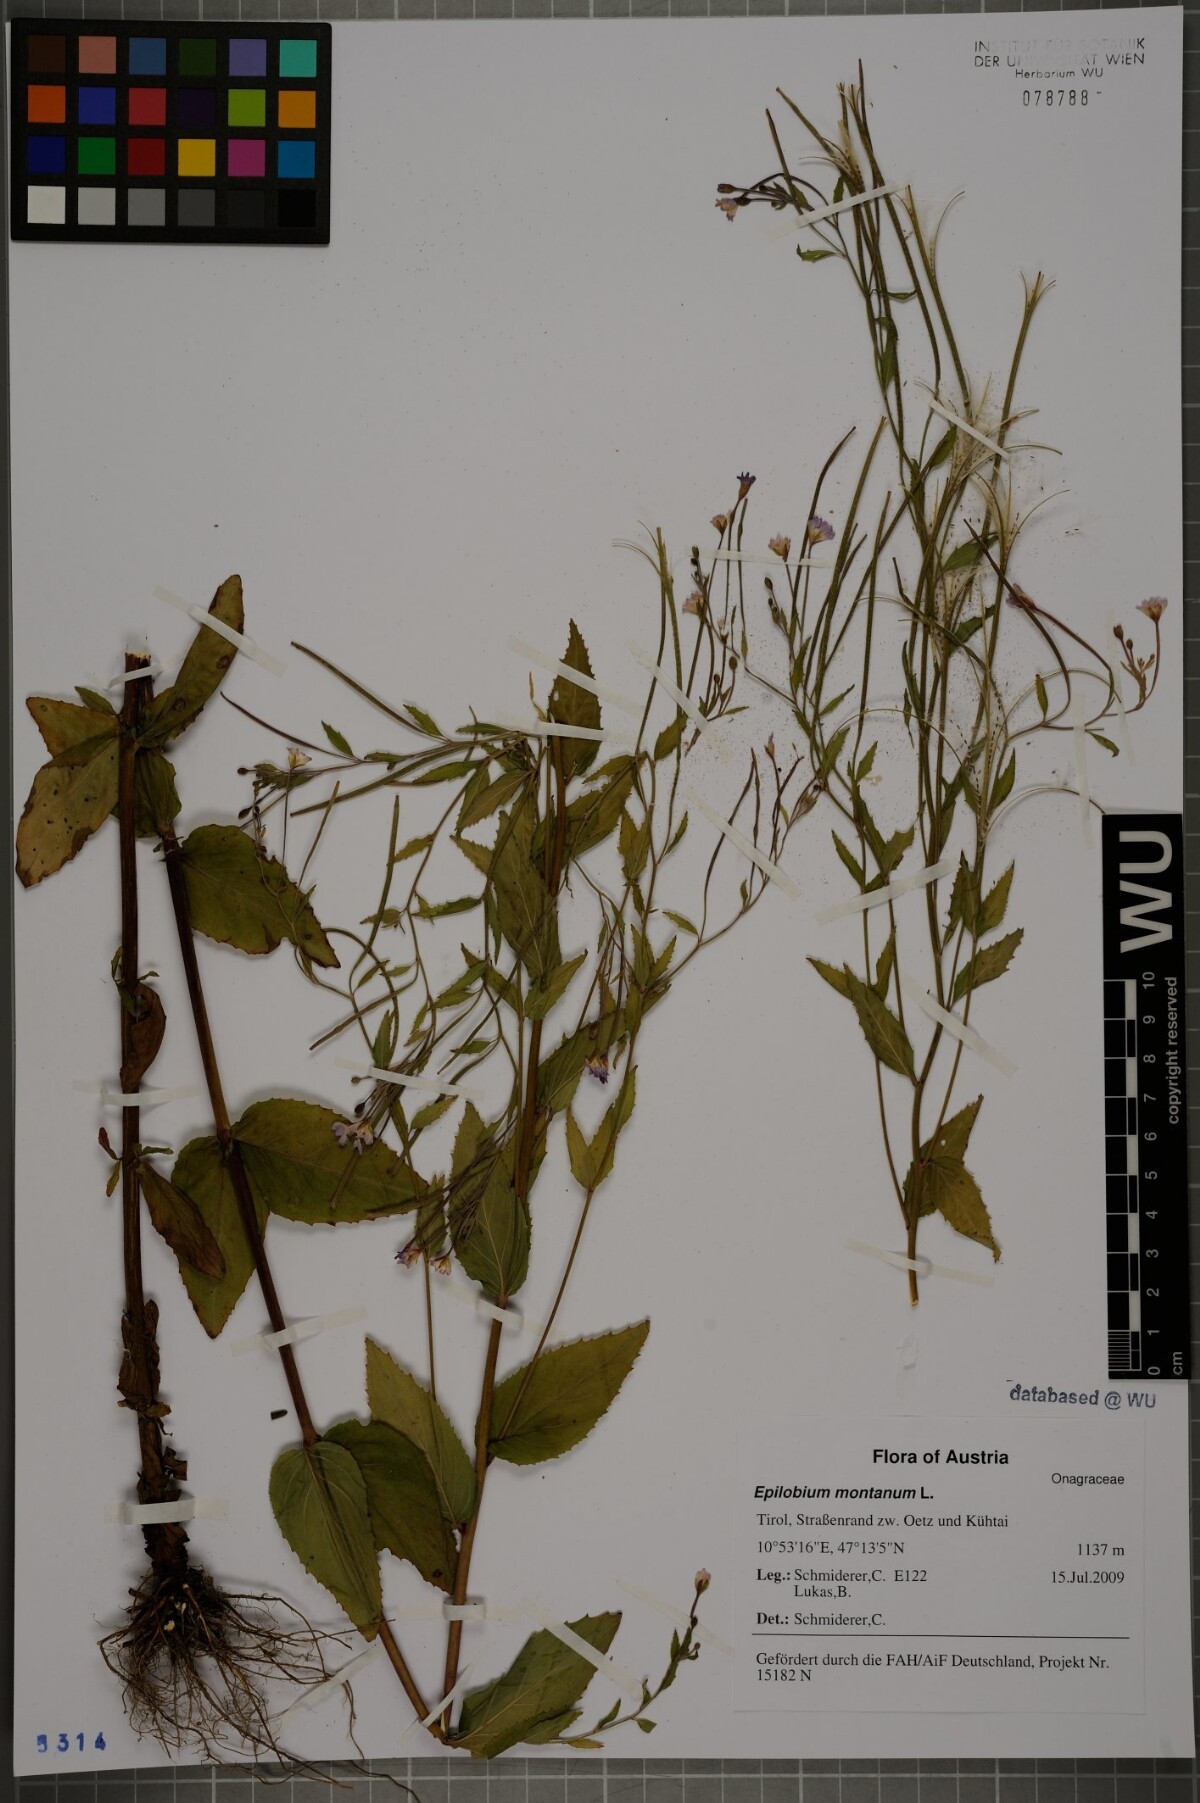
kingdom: Plantae
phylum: Tracheophyta
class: Magnoliopsida
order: Myrtales
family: Onagraceae
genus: Epilobium
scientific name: Epilobium montanum
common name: Broad-leaved willowherb
